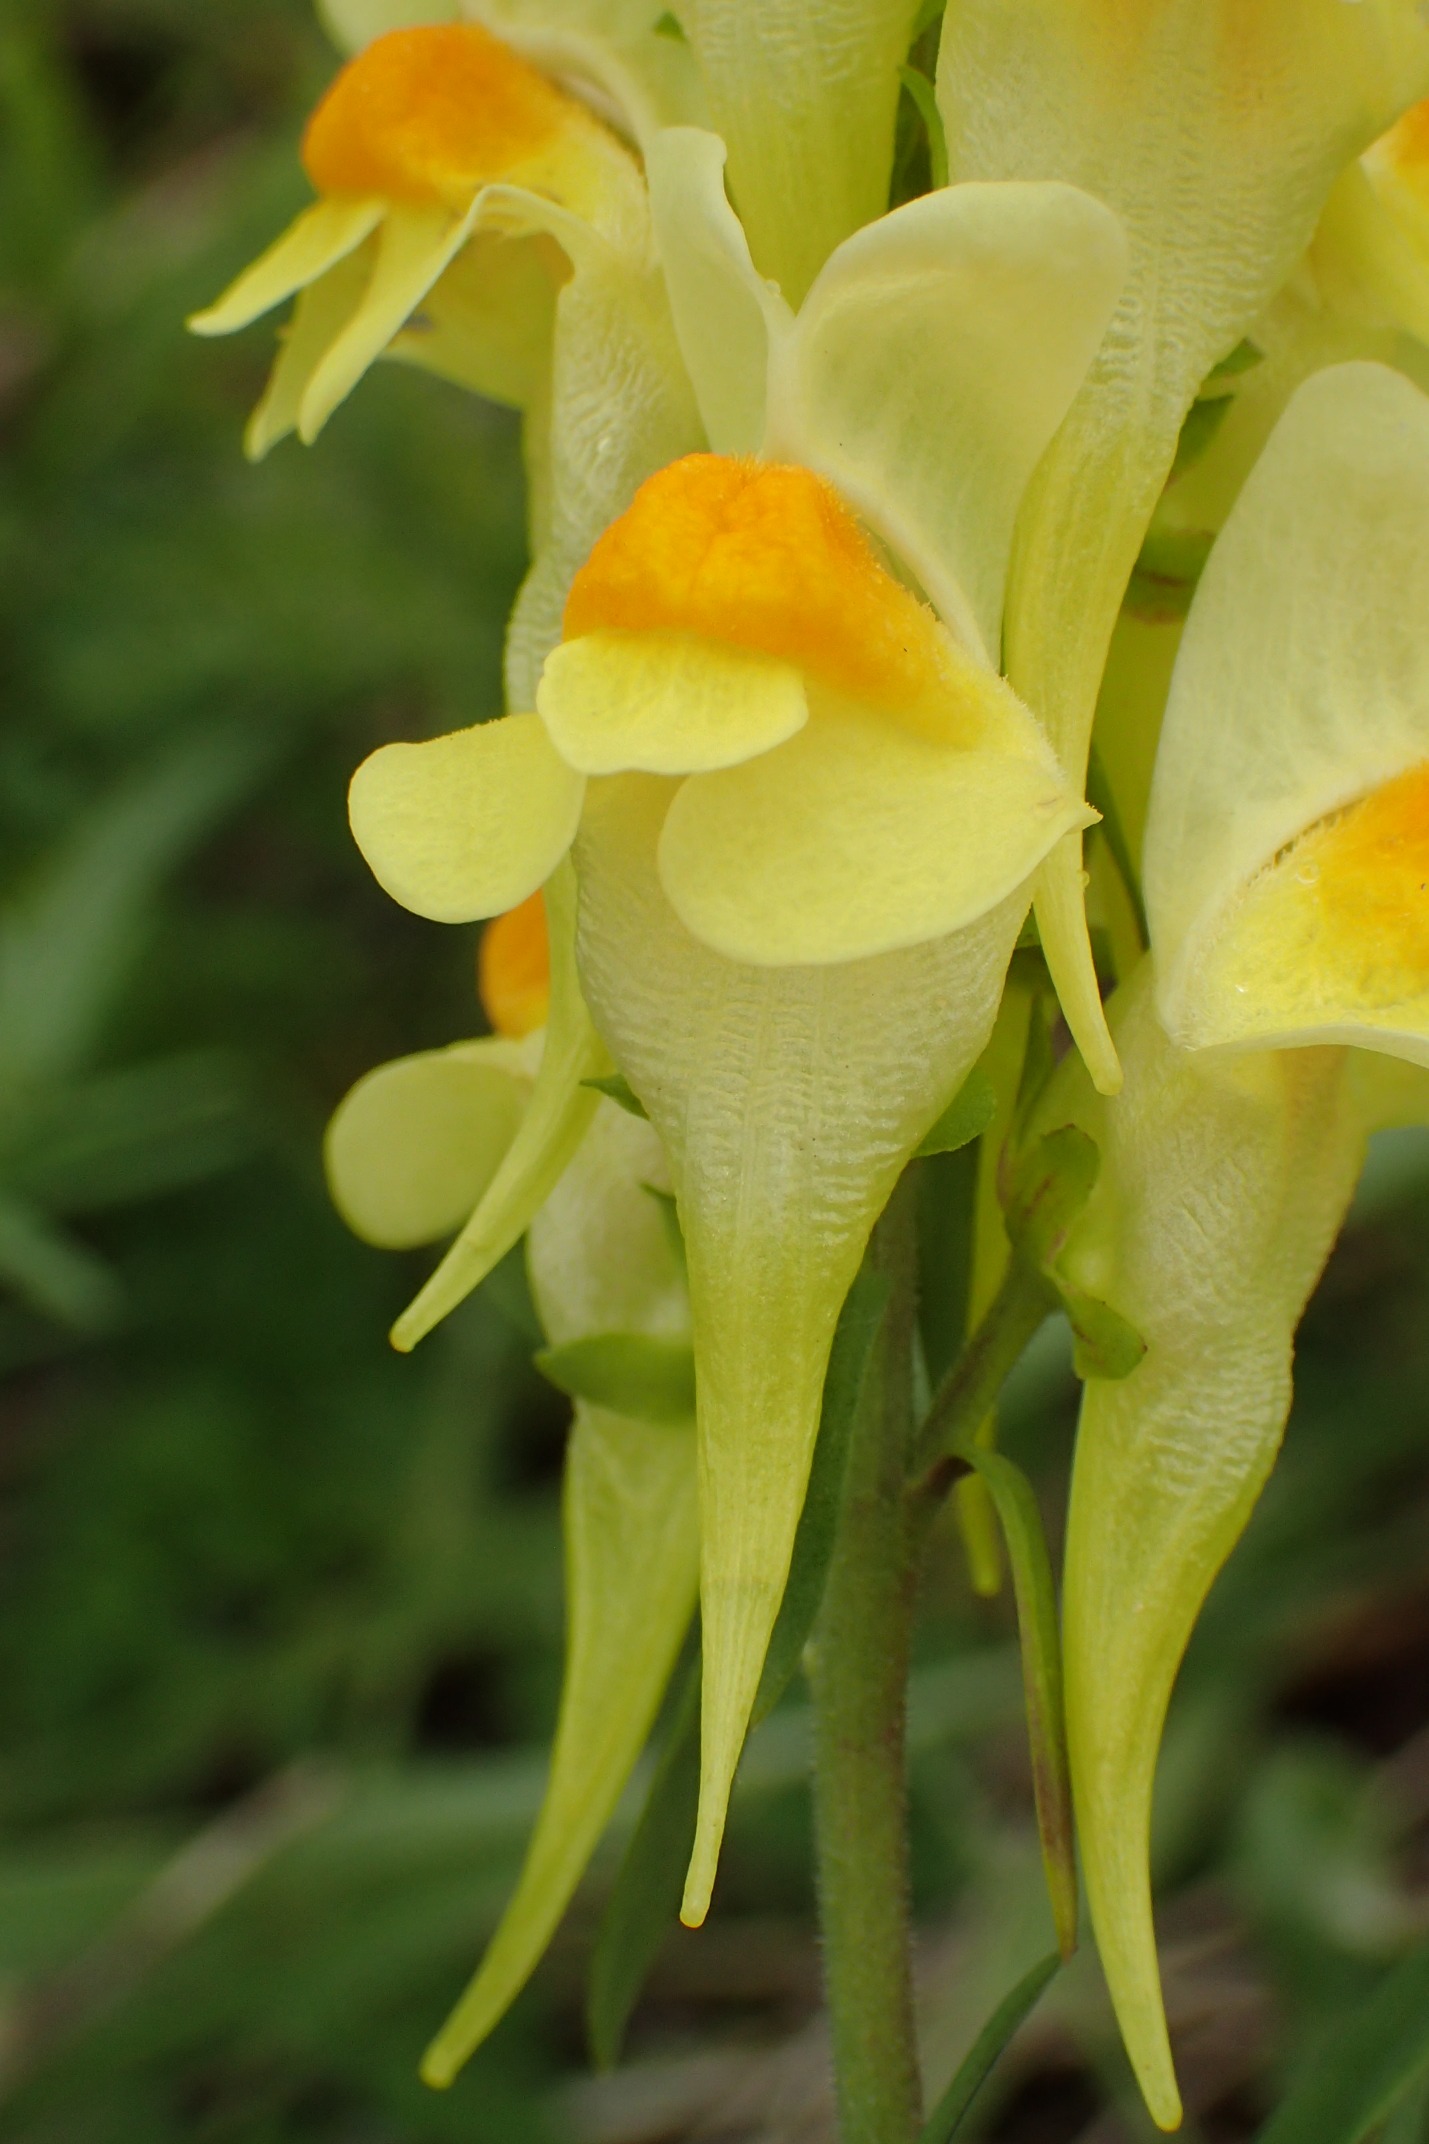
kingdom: Plantae
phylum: Tracheophyta
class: Magnoliopsida
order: Lamiales
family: Plantaginaceae
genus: Linaria
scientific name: Linaria vulgaris
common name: Almindelig torskemund
